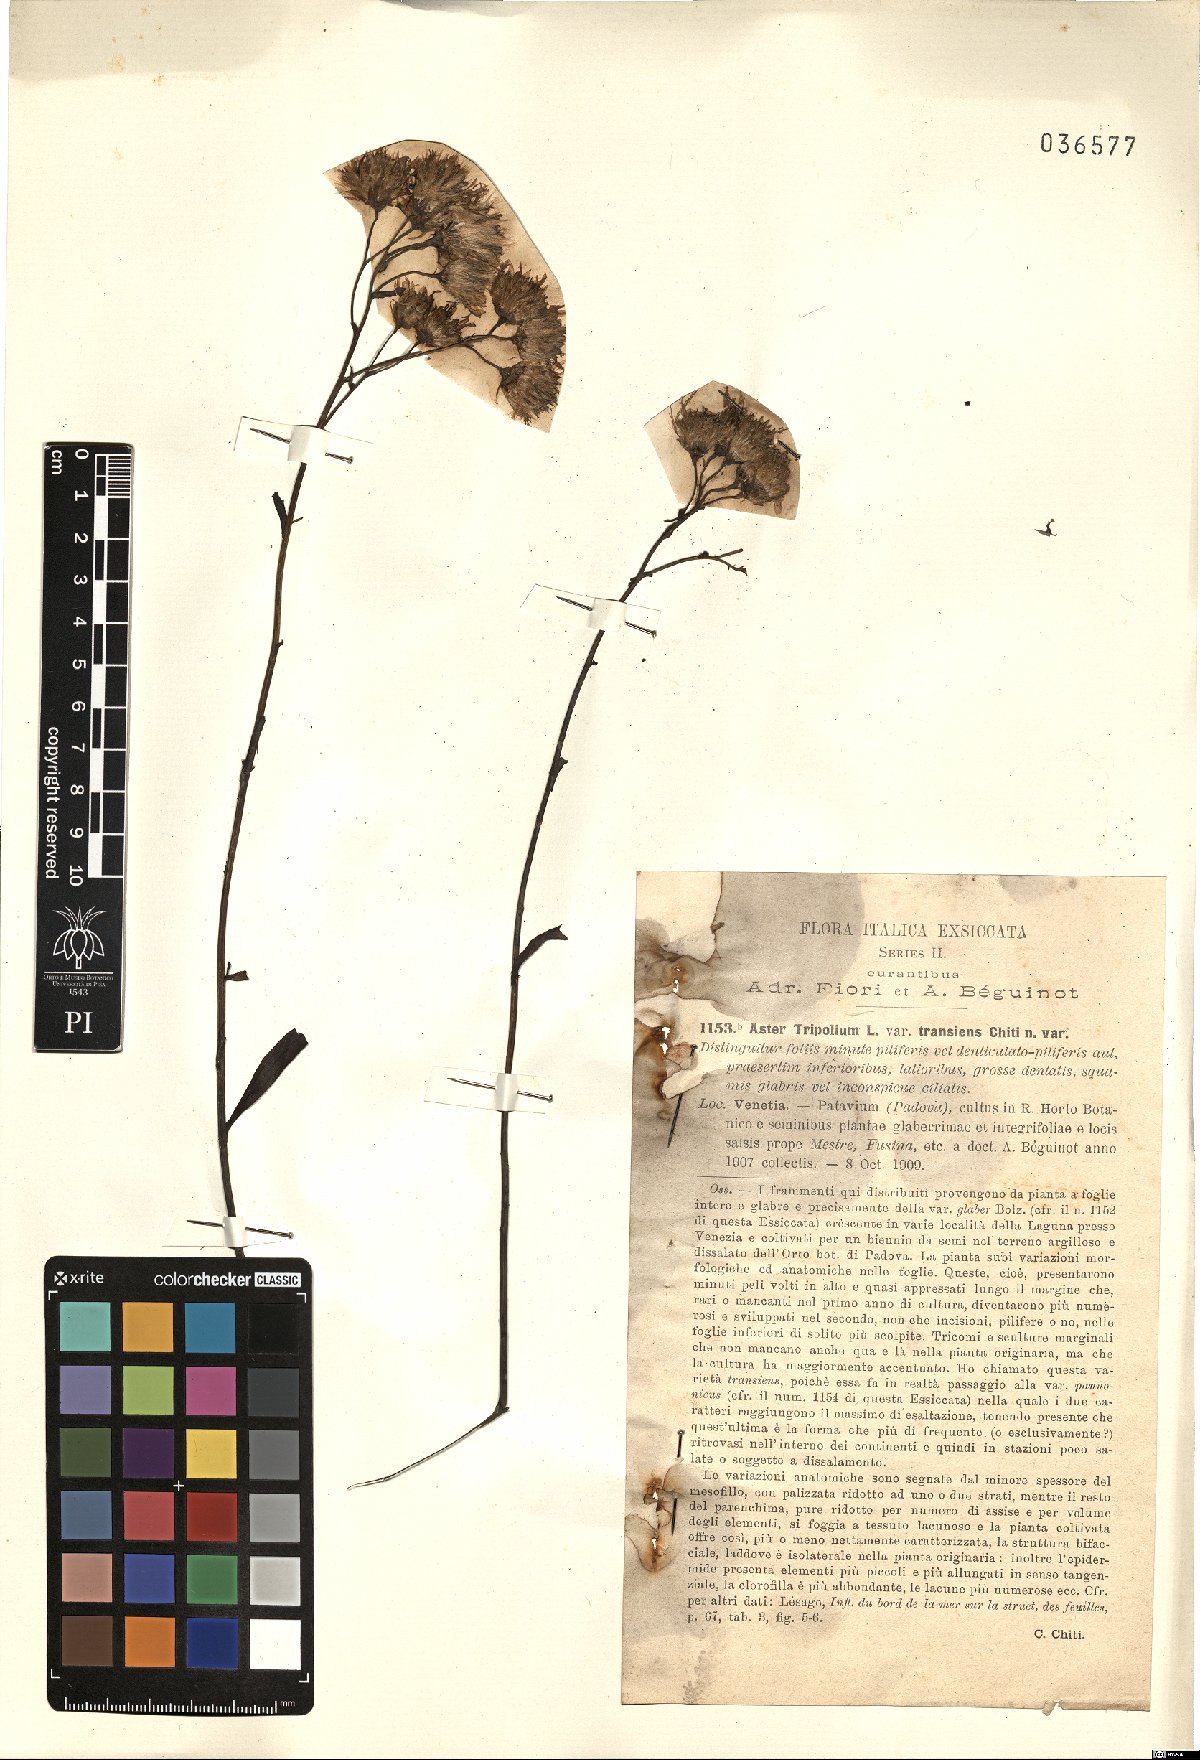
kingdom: Plantae
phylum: Tracheophyta
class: Magnoliopsida
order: Asterales
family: Asteraceae
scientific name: Asteraceae
